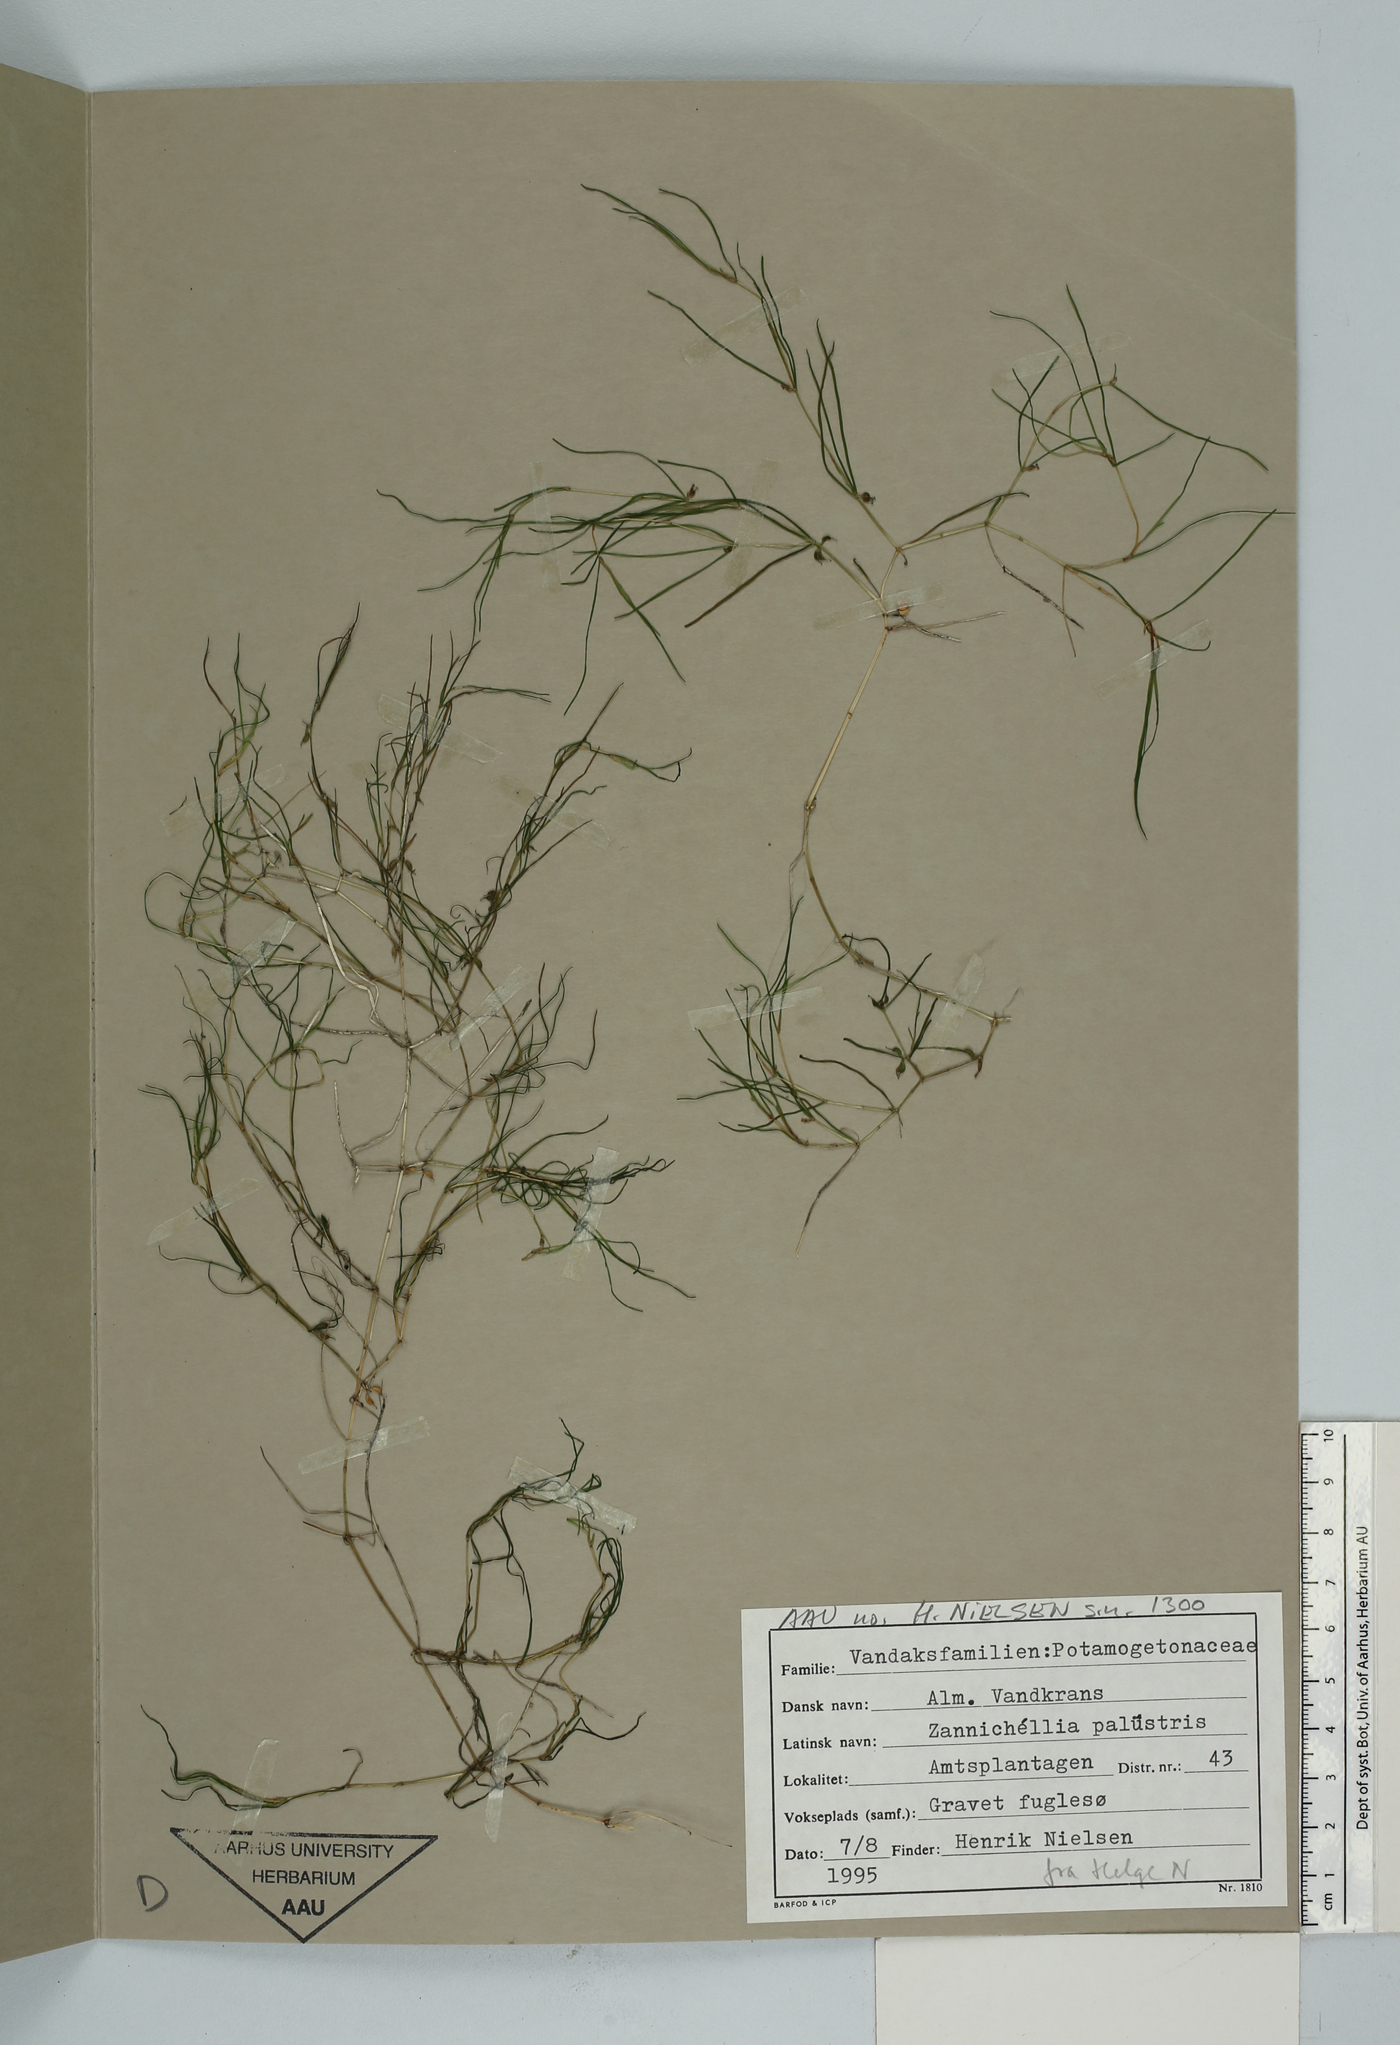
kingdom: Plantae
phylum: Tracheophyta
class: Liliopsida
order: Alismatales
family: Potamogetonaceae
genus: Zannichellia
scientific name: Zannichellia palustris
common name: Horned pondweed
